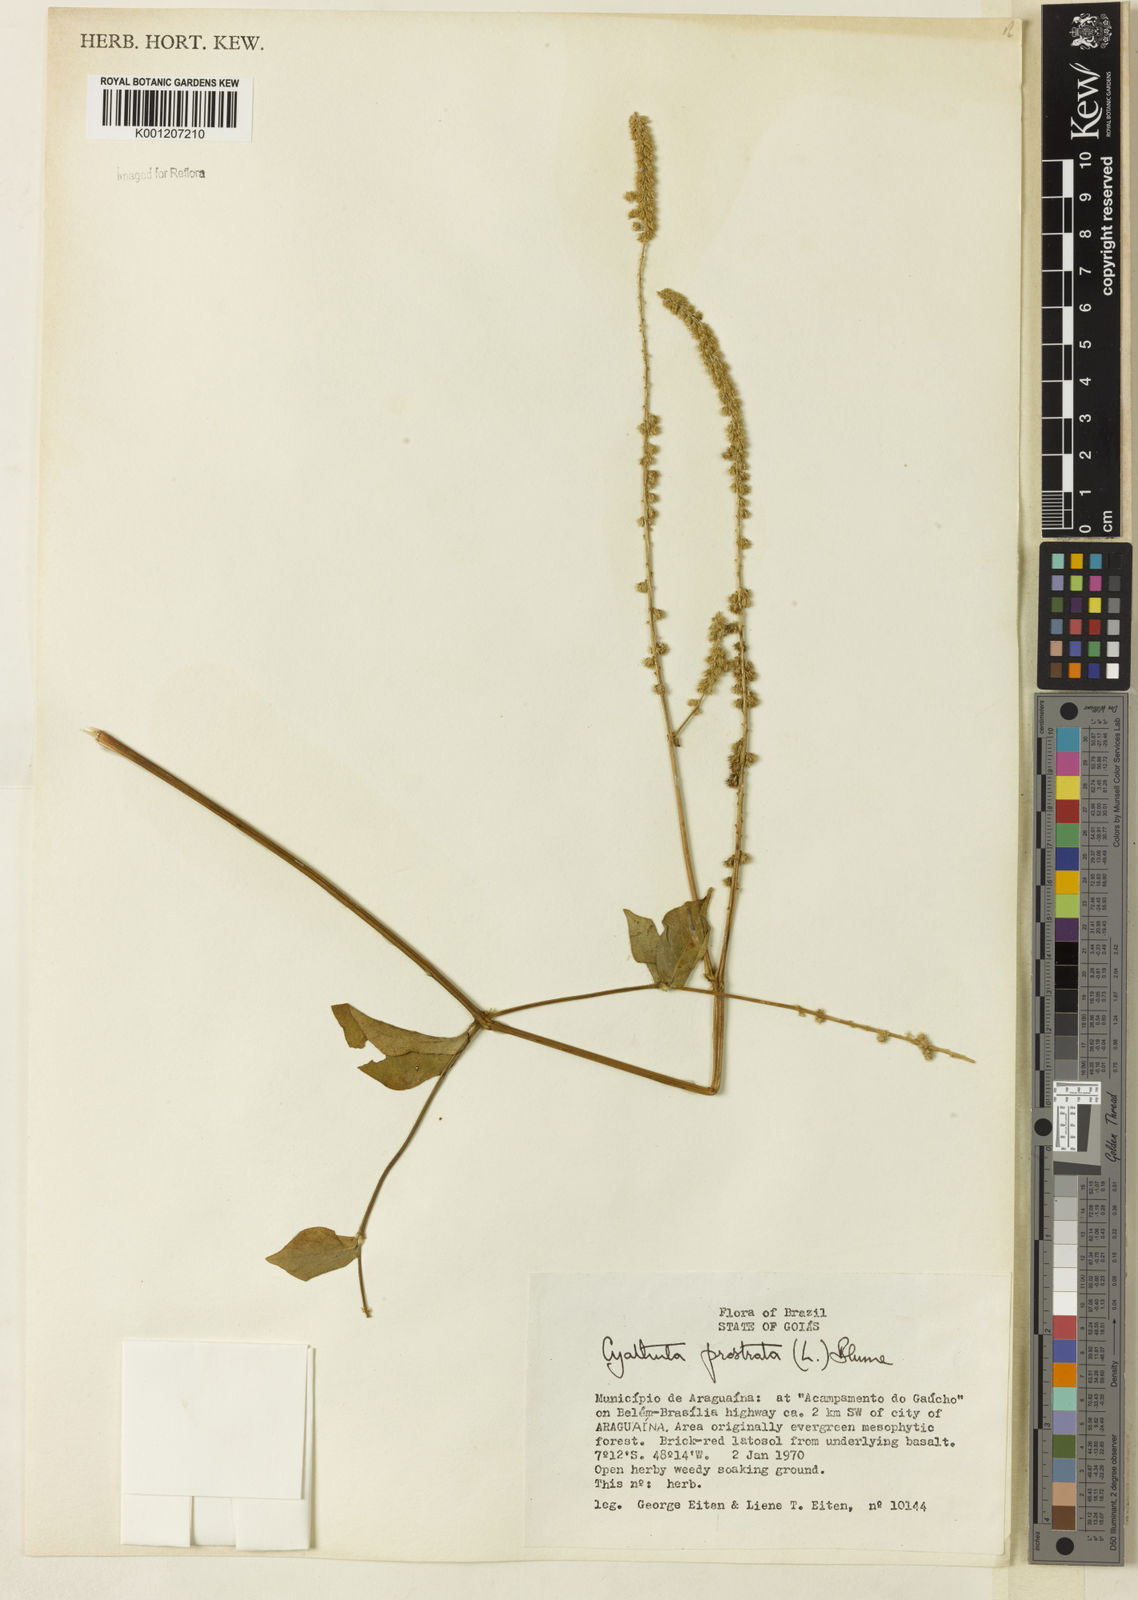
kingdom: Plantae
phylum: Tracheophyta
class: Magnoliopsida
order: Caryophyllales
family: Amaranthaceae
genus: Cyathula
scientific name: Cyathula prostrata
